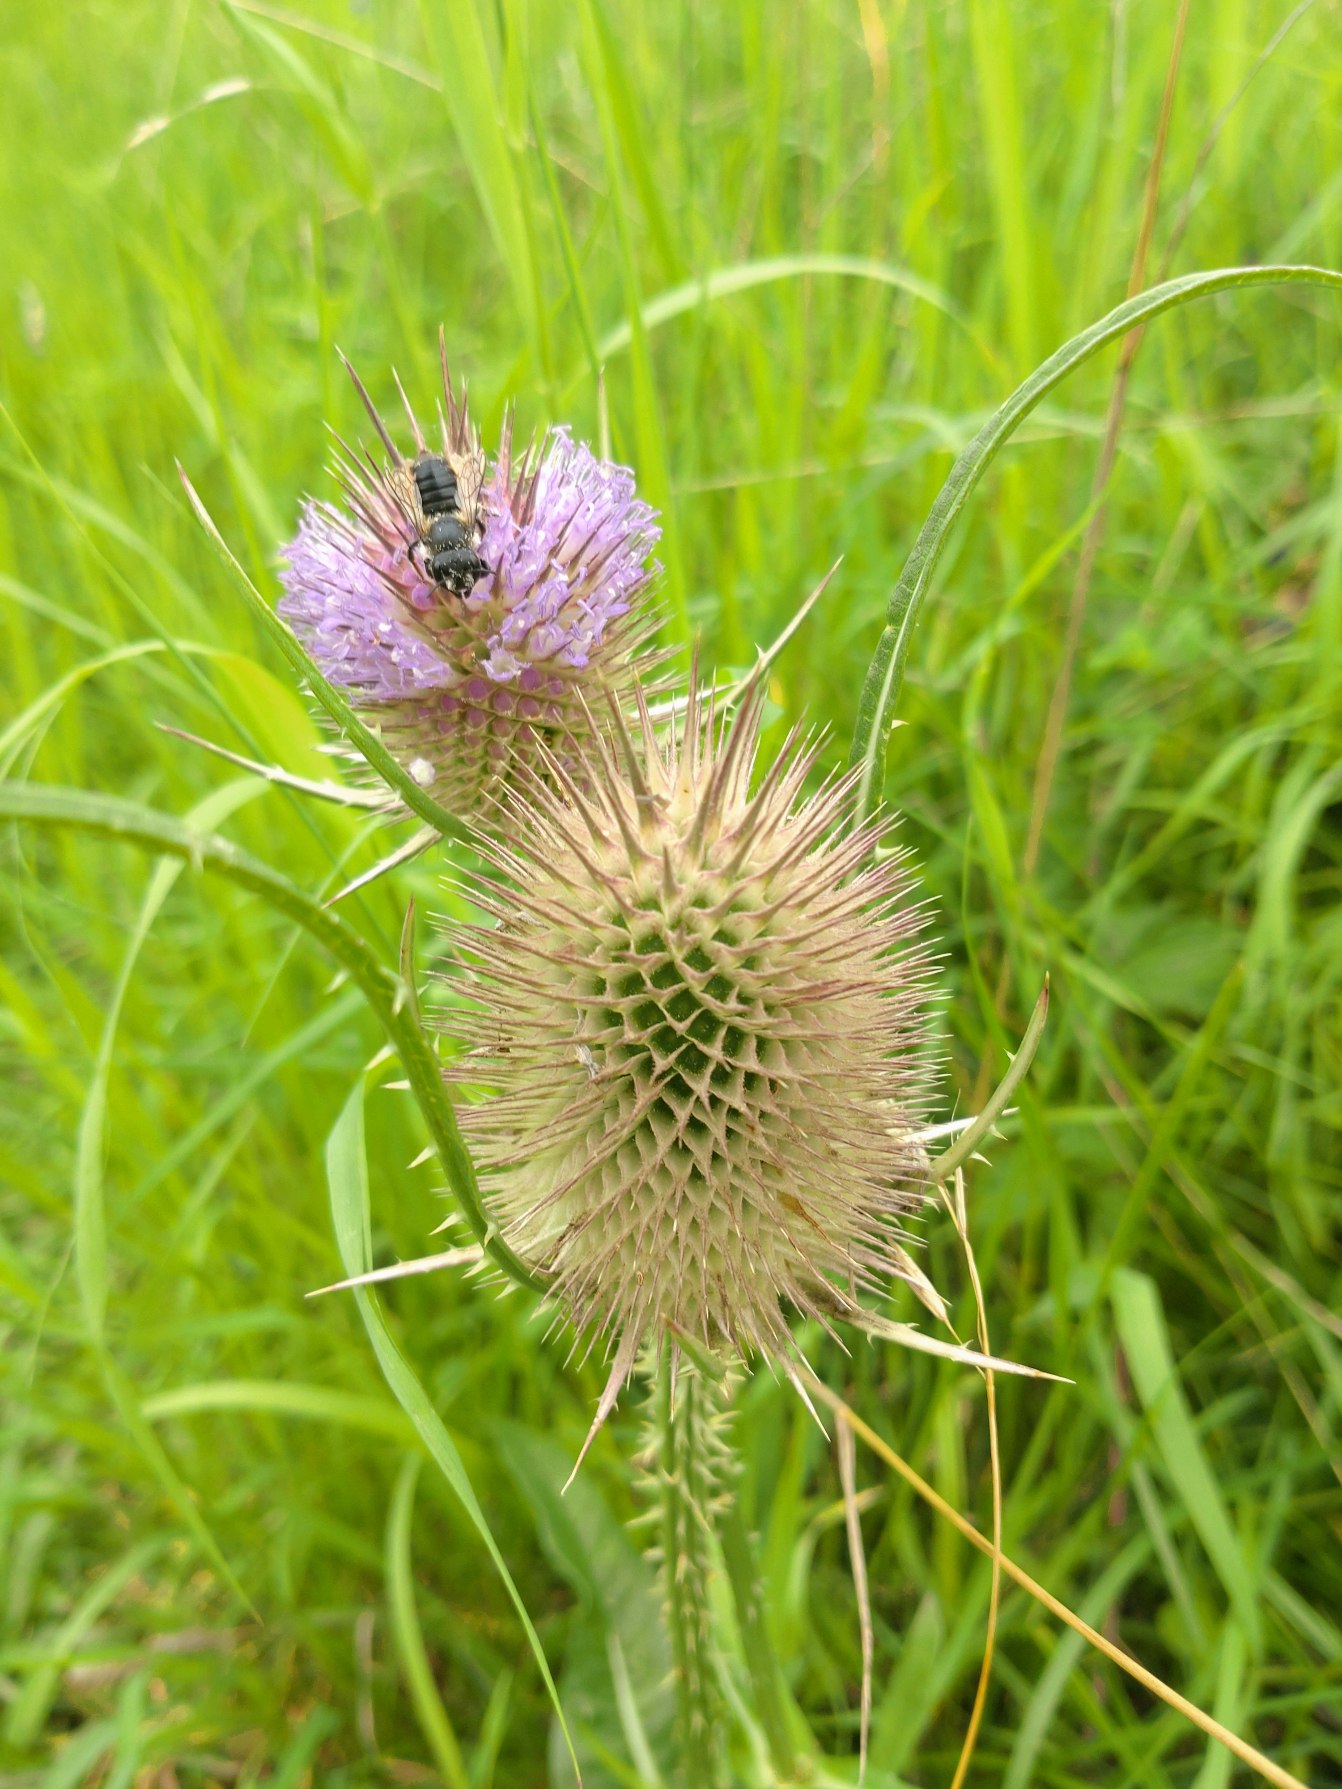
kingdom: Plantae
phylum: Tracheophyta
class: Magnoliopsida
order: Dipsacales
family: Caprifoliaceae
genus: Dipsacus
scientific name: Dipsacus fullonum
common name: Gærde-kartebolle
